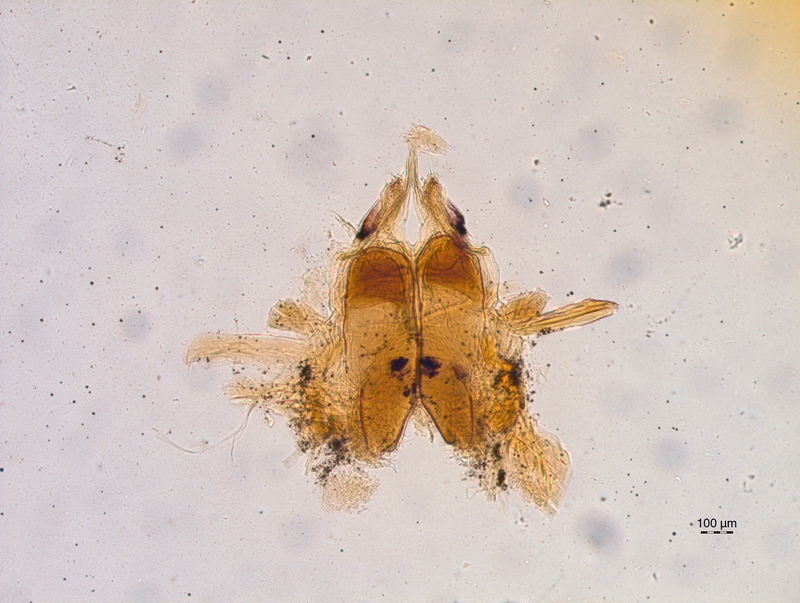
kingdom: Animalia
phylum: Arthropoda
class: Diplopoda
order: Chordeumatida
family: Chordeumatidae
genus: Chordeuma
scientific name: Chordeuma sylvestre
